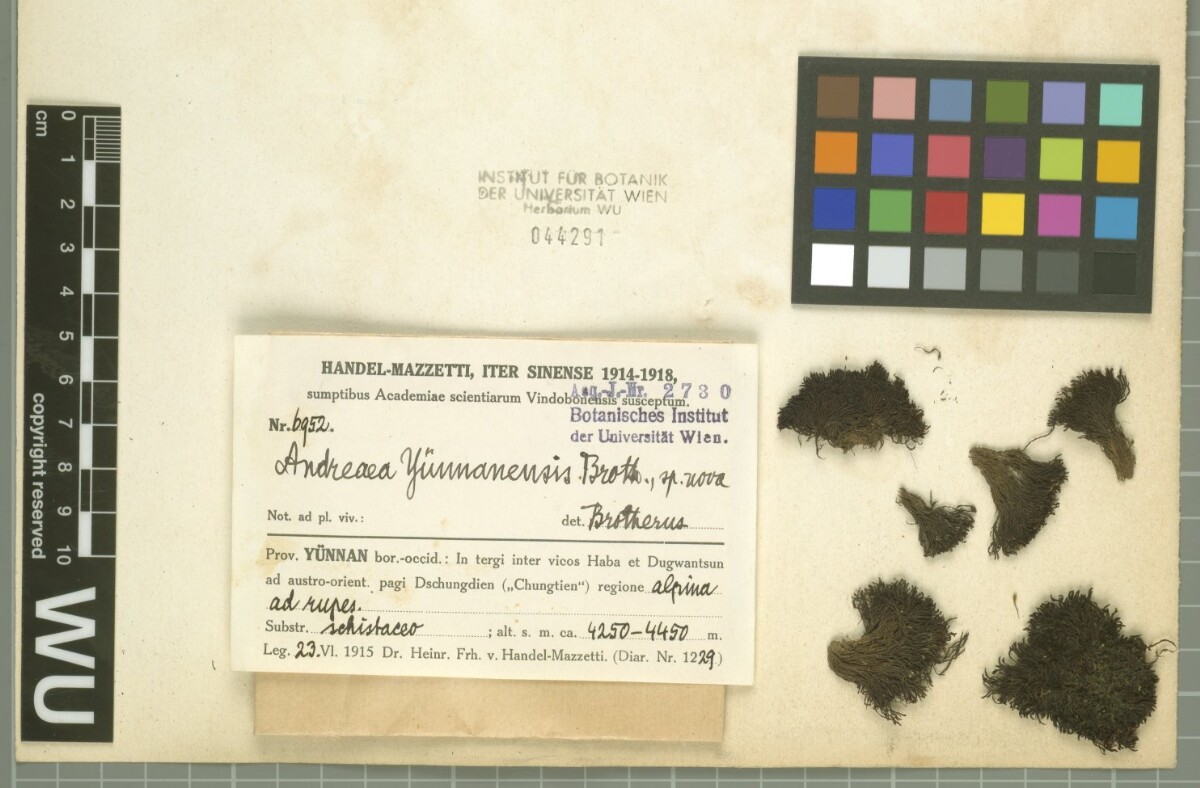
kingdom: Plantae
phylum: Bryophyta
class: Bryopsida
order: Pottiales
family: Pottiaceae
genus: Didymodon
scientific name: Didymodon nigrescens
